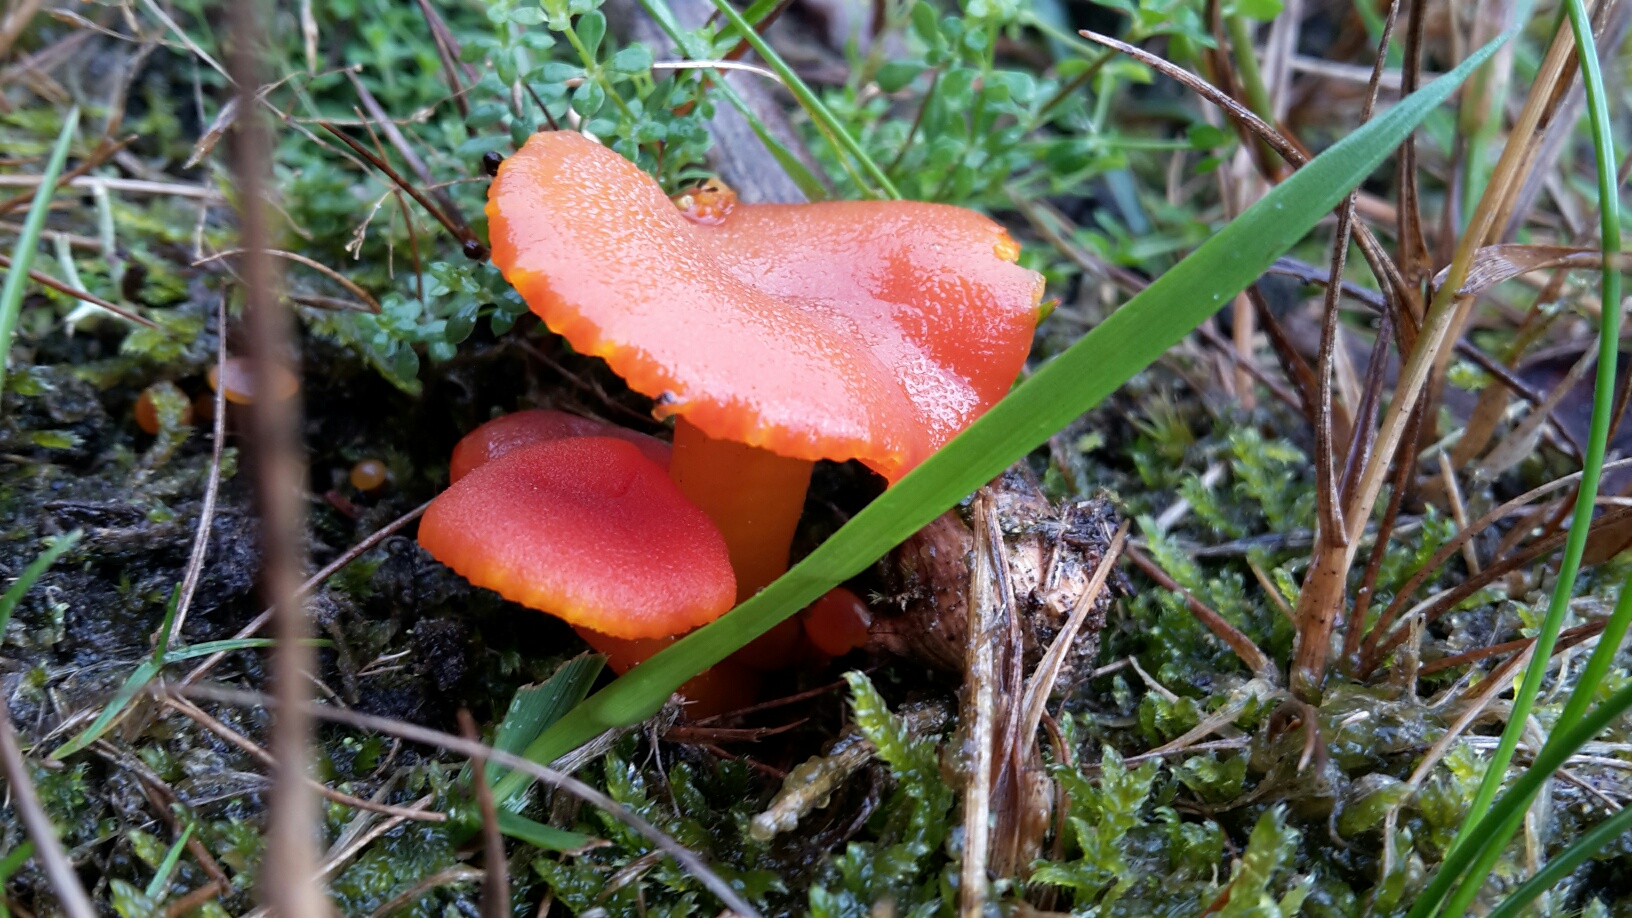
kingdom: Fungi
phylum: Basidiomycota
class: Agaricomycetes
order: Agaricales
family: Hygrophoraceae
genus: Hygrocybe
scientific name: Hygrocybe miniata
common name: mønje-vokshat
